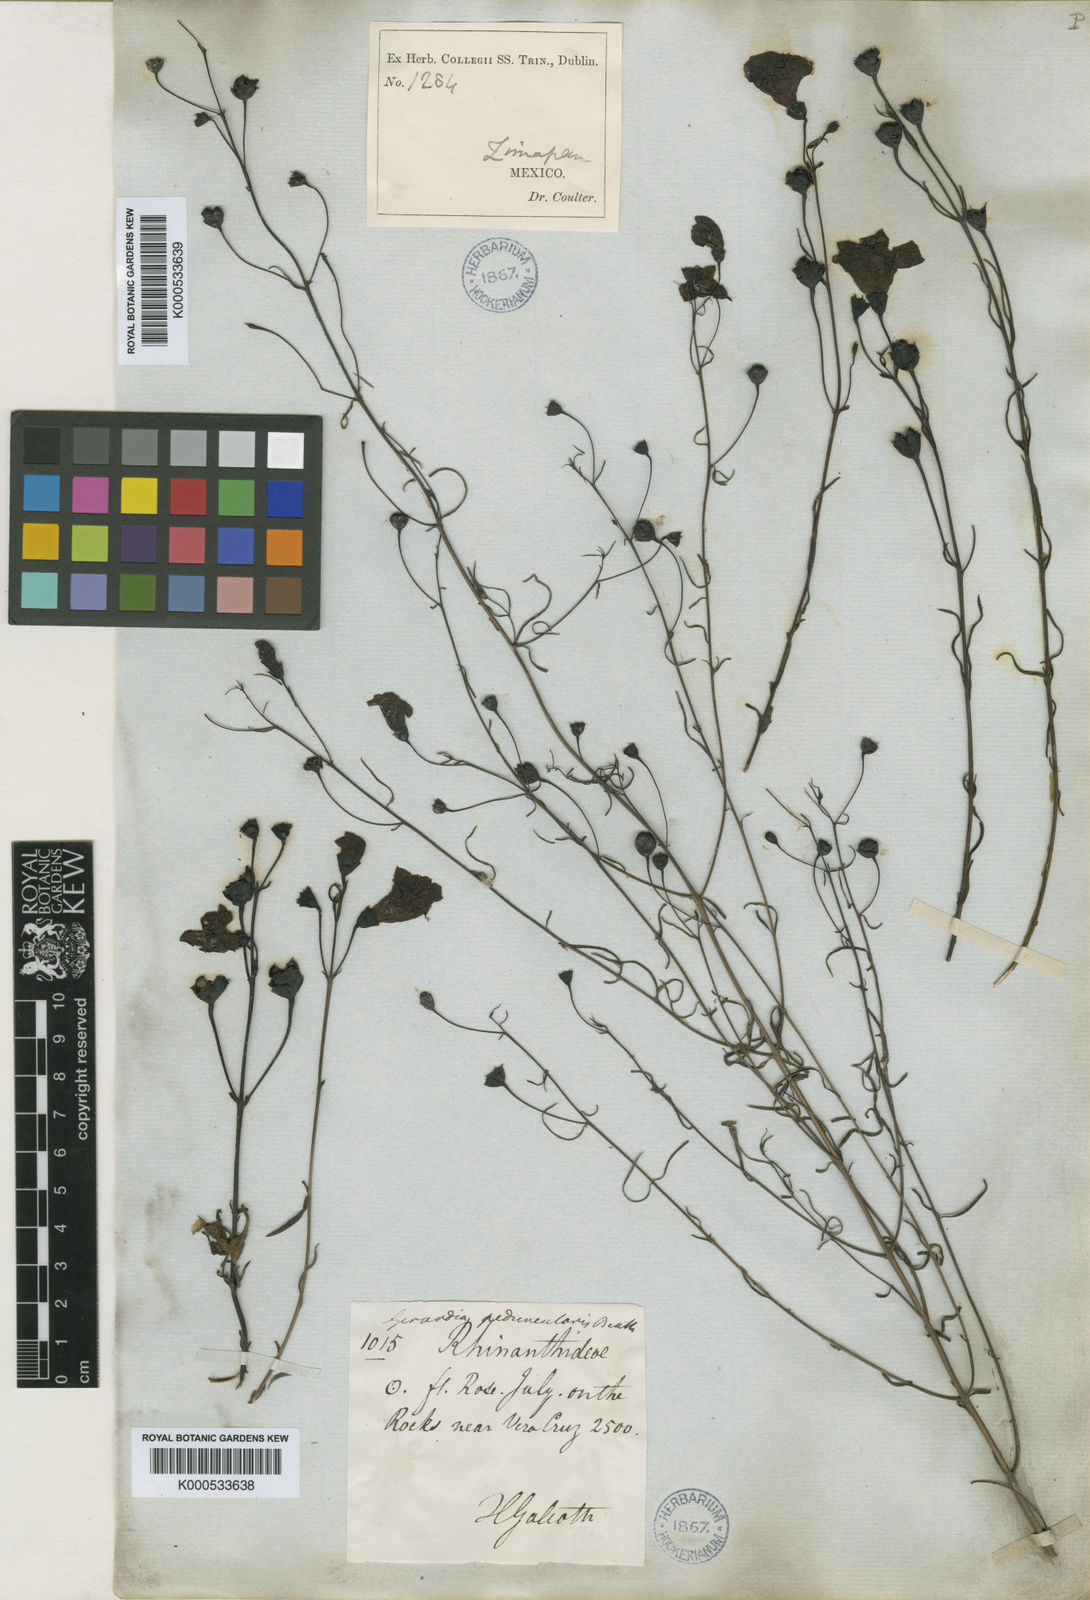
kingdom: Plantae
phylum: Tracheophyta
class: Magnoliopsida
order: Lamiales
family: Orobanchaceae
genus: Agalinis
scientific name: Agalinis peduncularis
